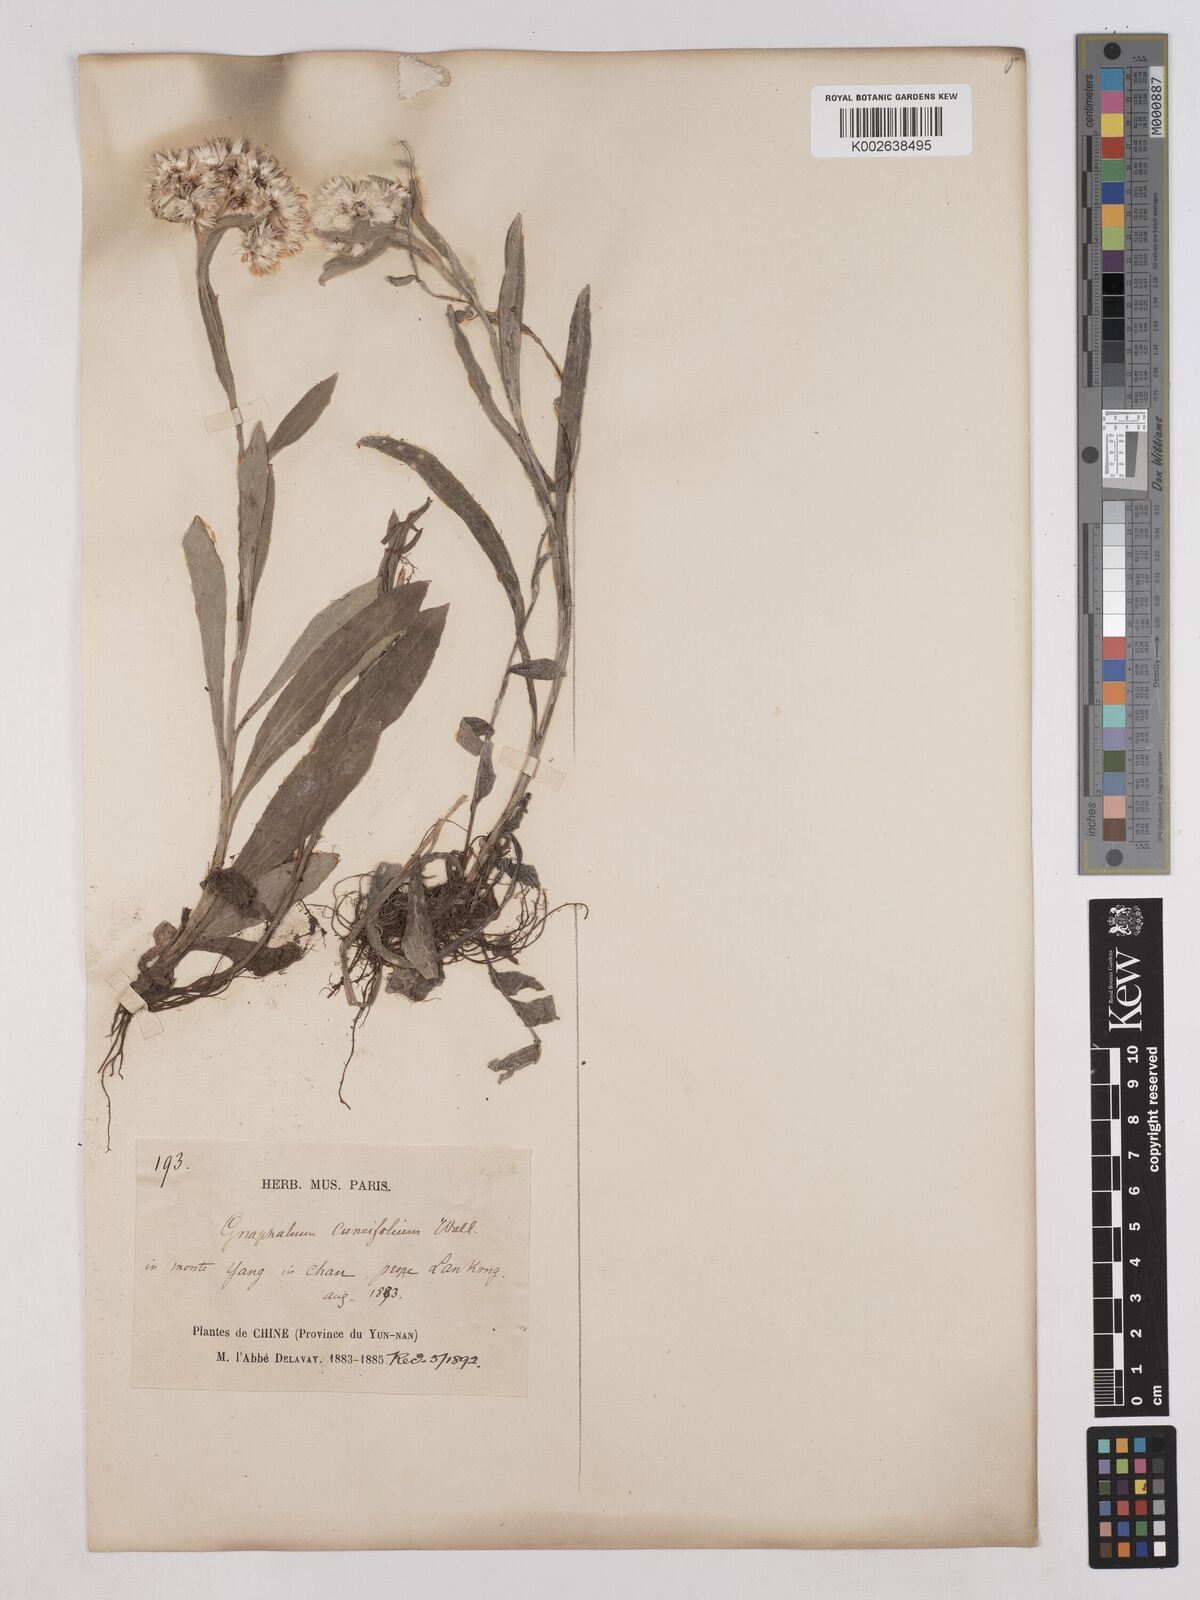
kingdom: Plantae
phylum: Tracheophyta
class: Magnoliopsida
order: Asterales
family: Asteraceae
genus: Anaphalis
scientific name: Anaphalis nepalensis
